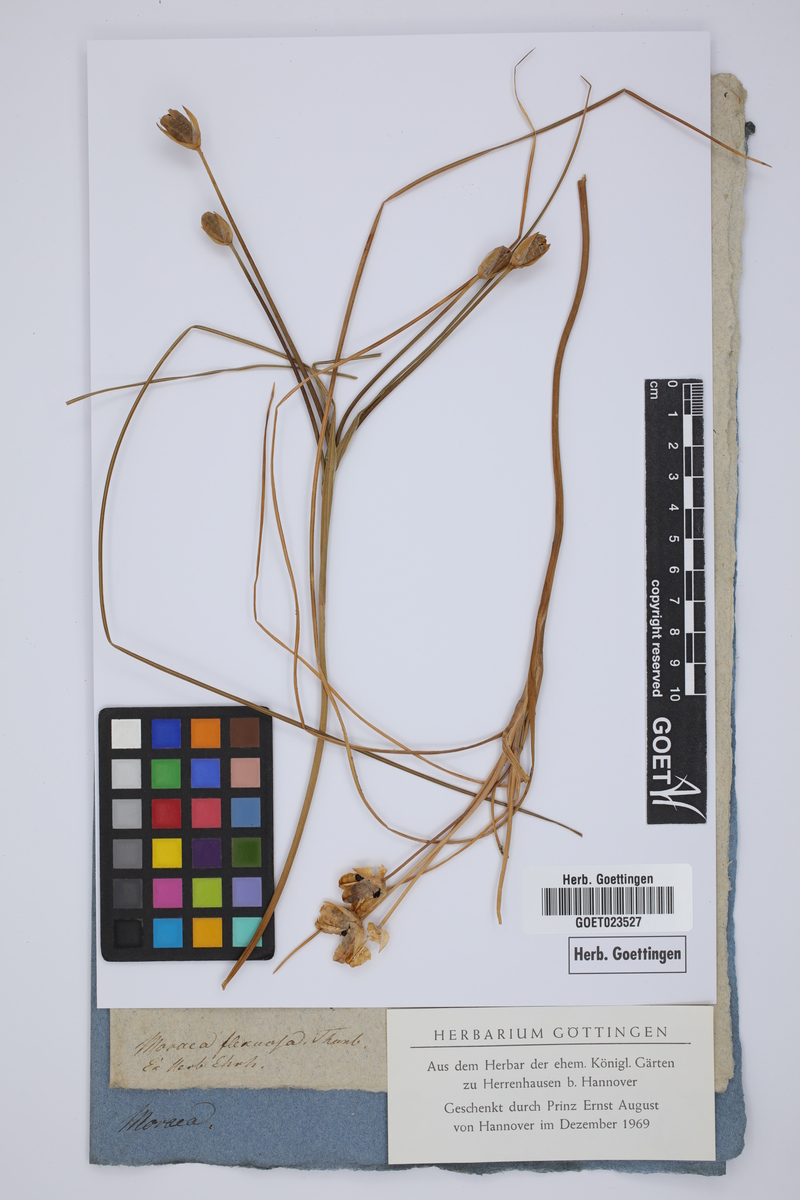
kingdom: Plantae
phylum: Tracheophyta
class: Liliopsida
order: Asparagales
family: Iridaceae
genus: Moraea
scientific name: Moraea longifolia
